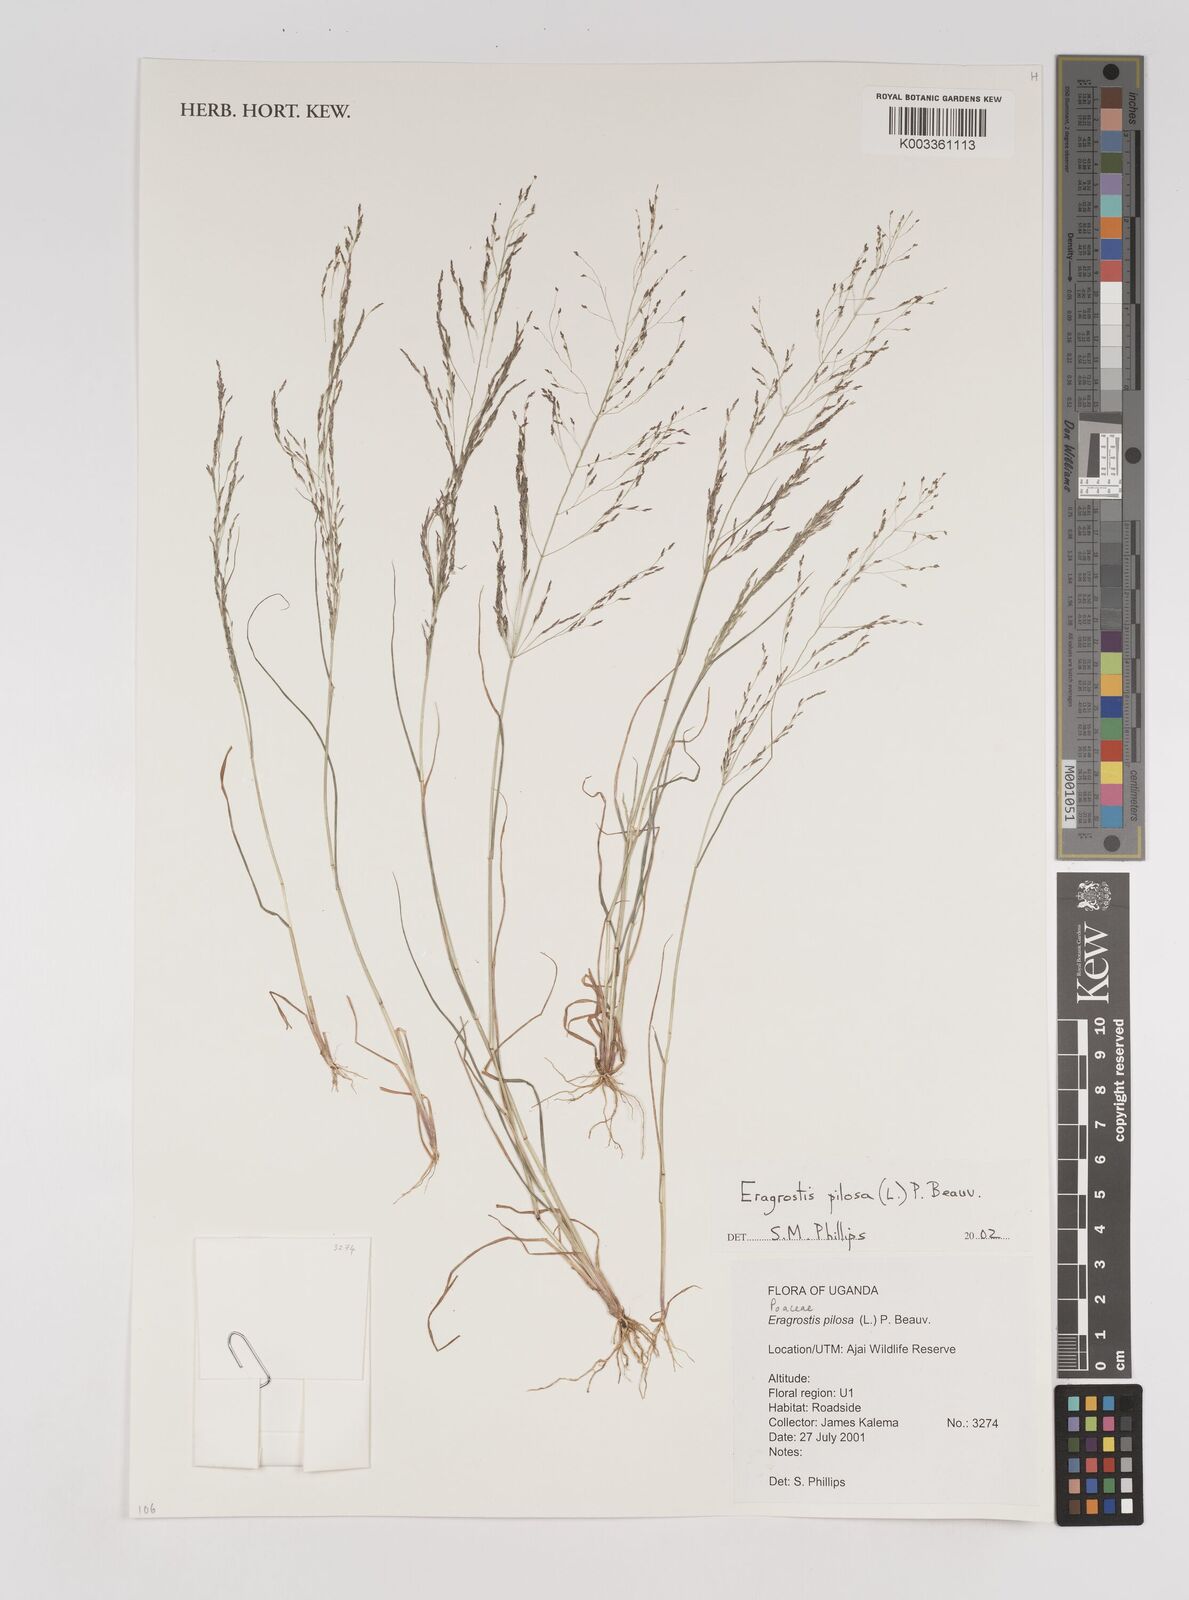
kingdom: Plantae
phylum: Tracheophyta
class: Liliopsida
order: Poales
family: Poaceae
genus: Eragrostis
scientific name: Eragrostis pilosa
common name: Indian lovegrass
